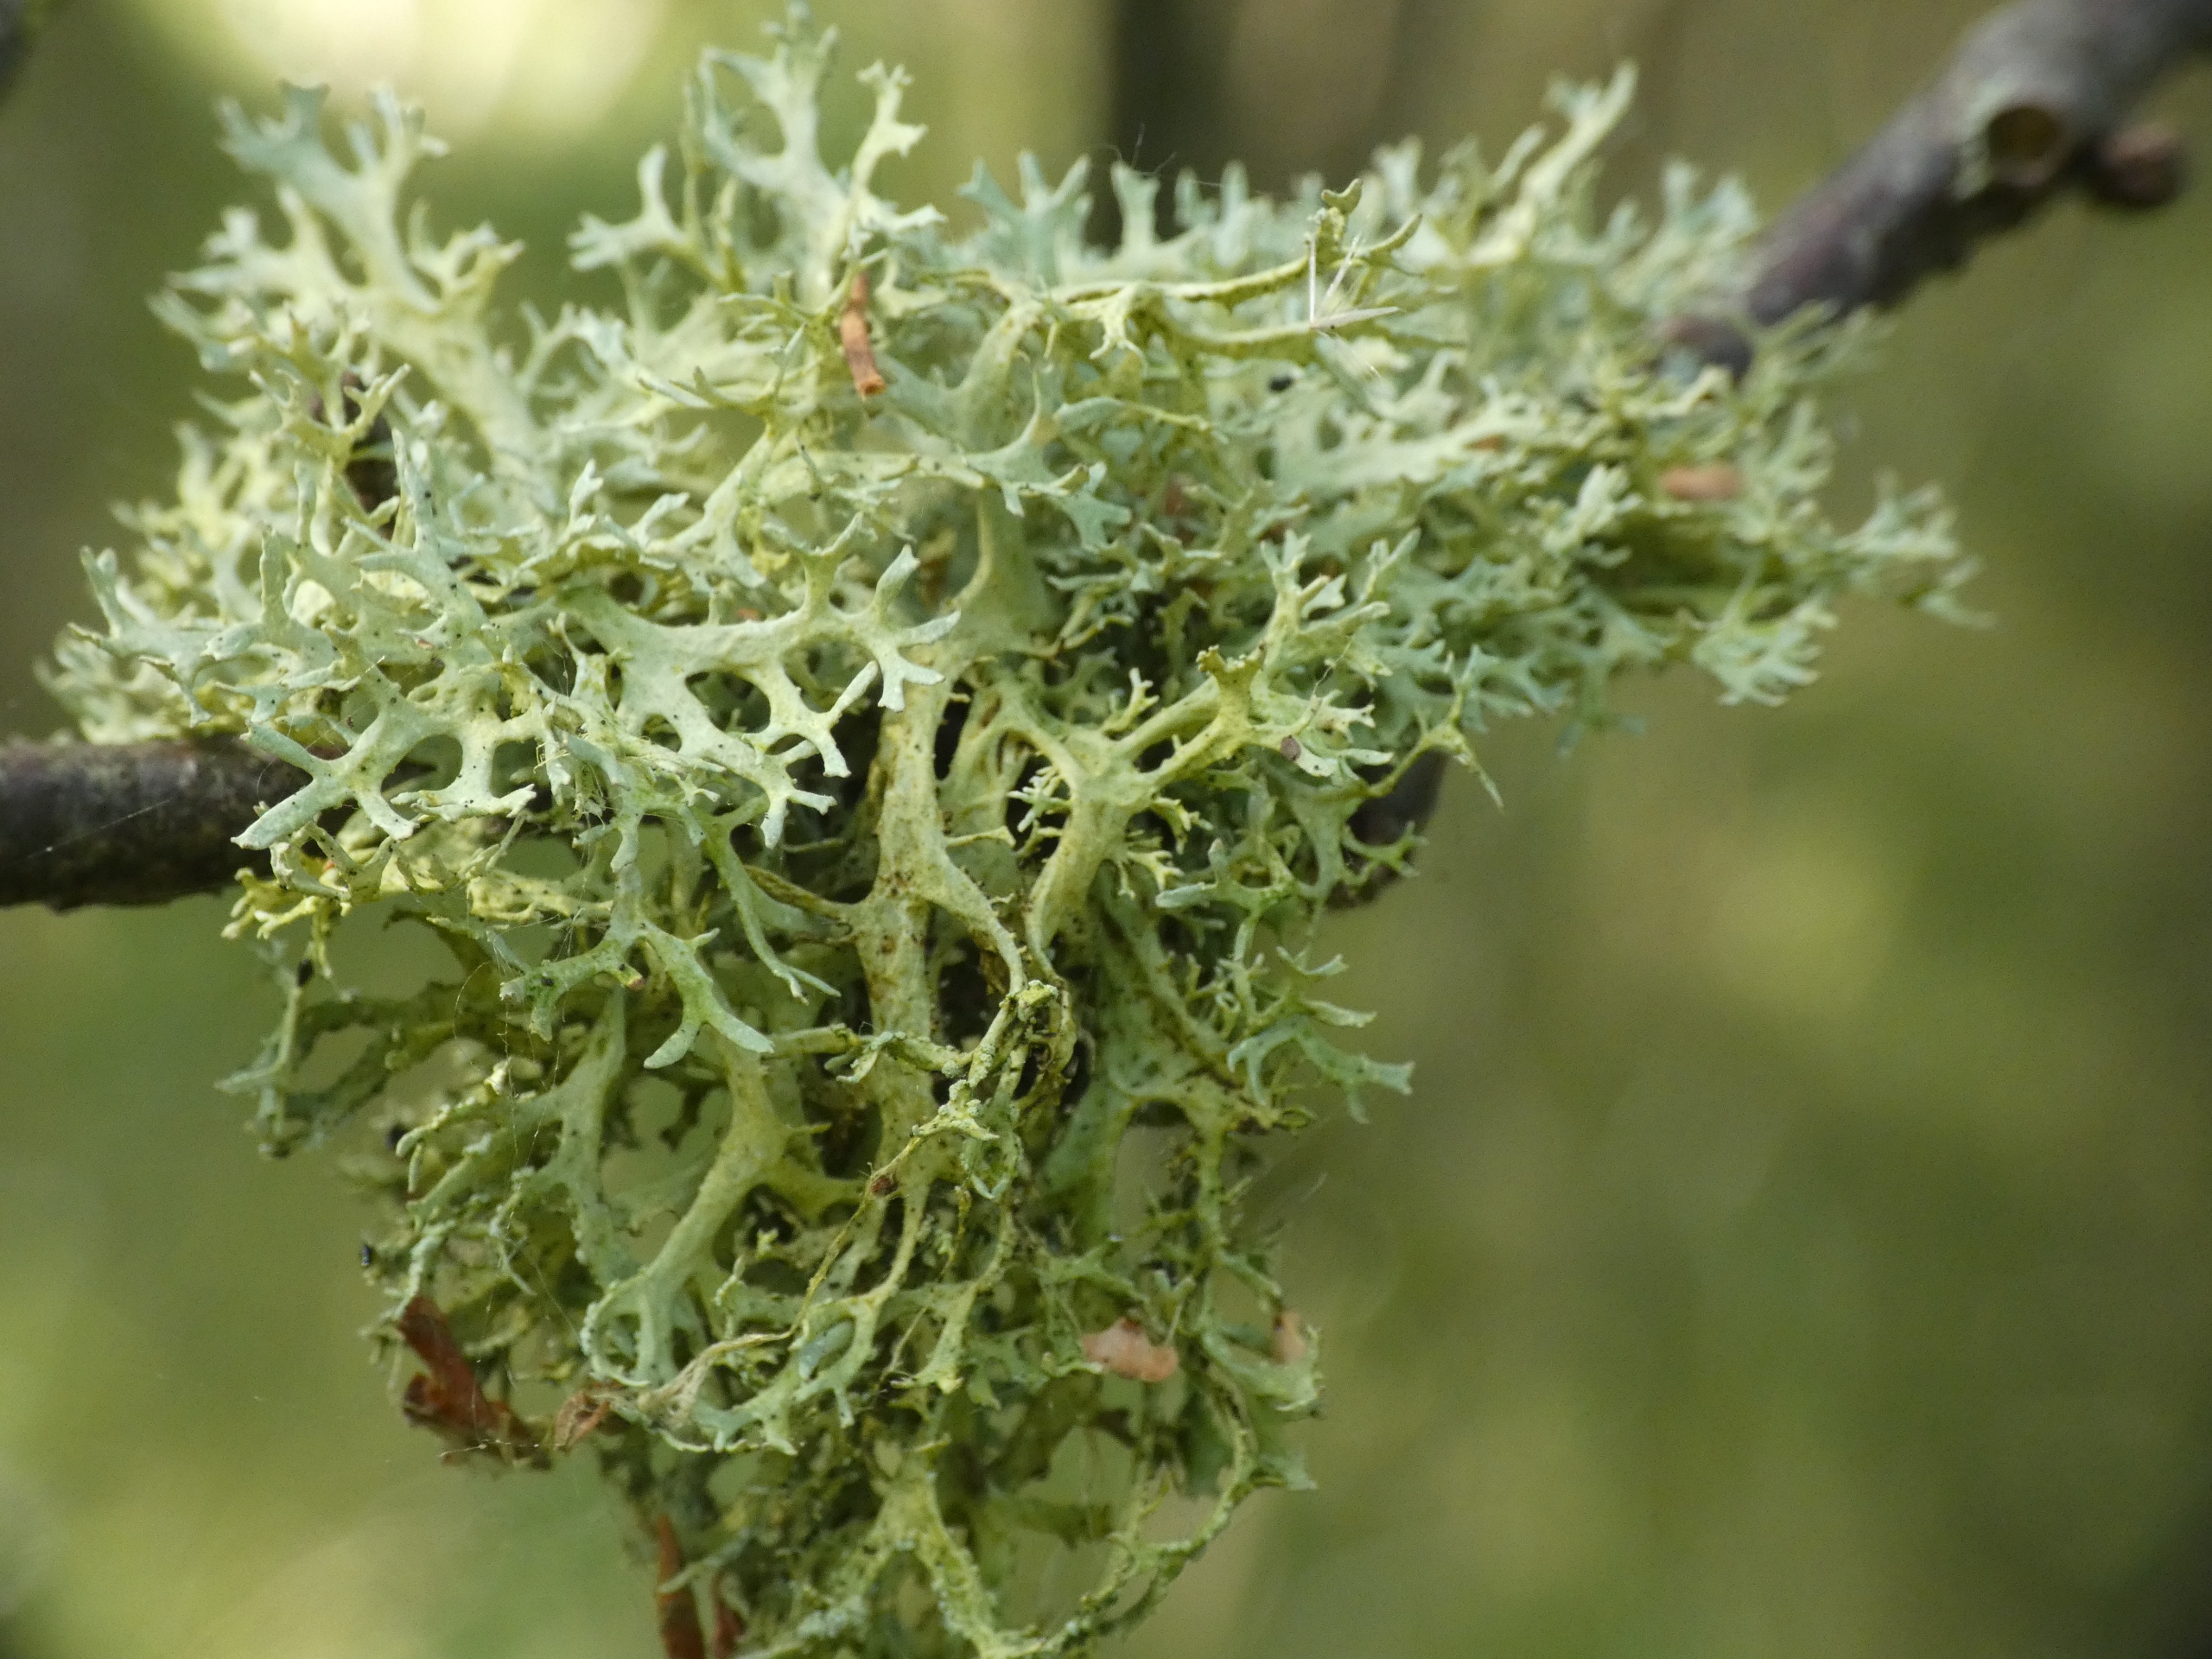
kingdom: Fungi
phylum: Ascomycota
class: Lecanoromycetes
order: Lecanorales
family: Parmeliaceae
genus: Evernia
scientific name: Evernia prunastri
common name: Almindelig slåenlav
